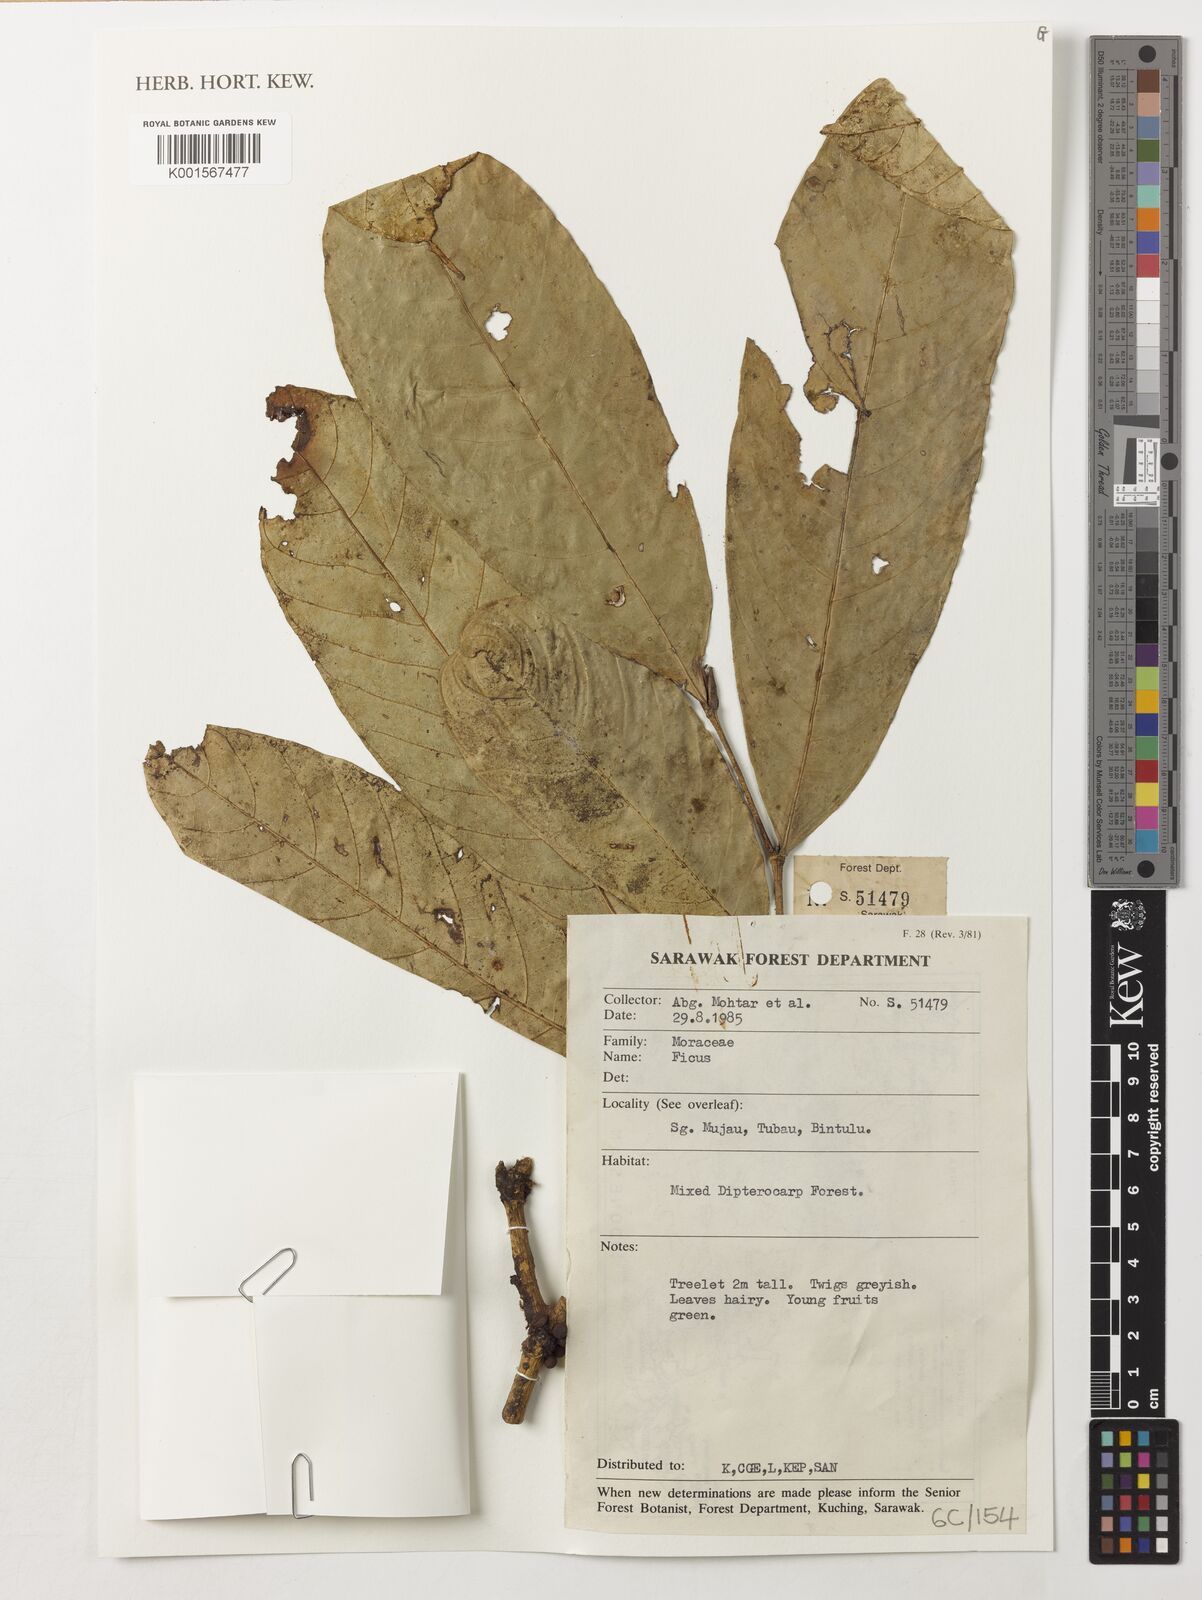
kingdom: Plantae
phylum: Tracheophyta
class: Magnoliopsida
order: Rosales
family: Moraceae
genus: Ficus
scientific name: Ficus
